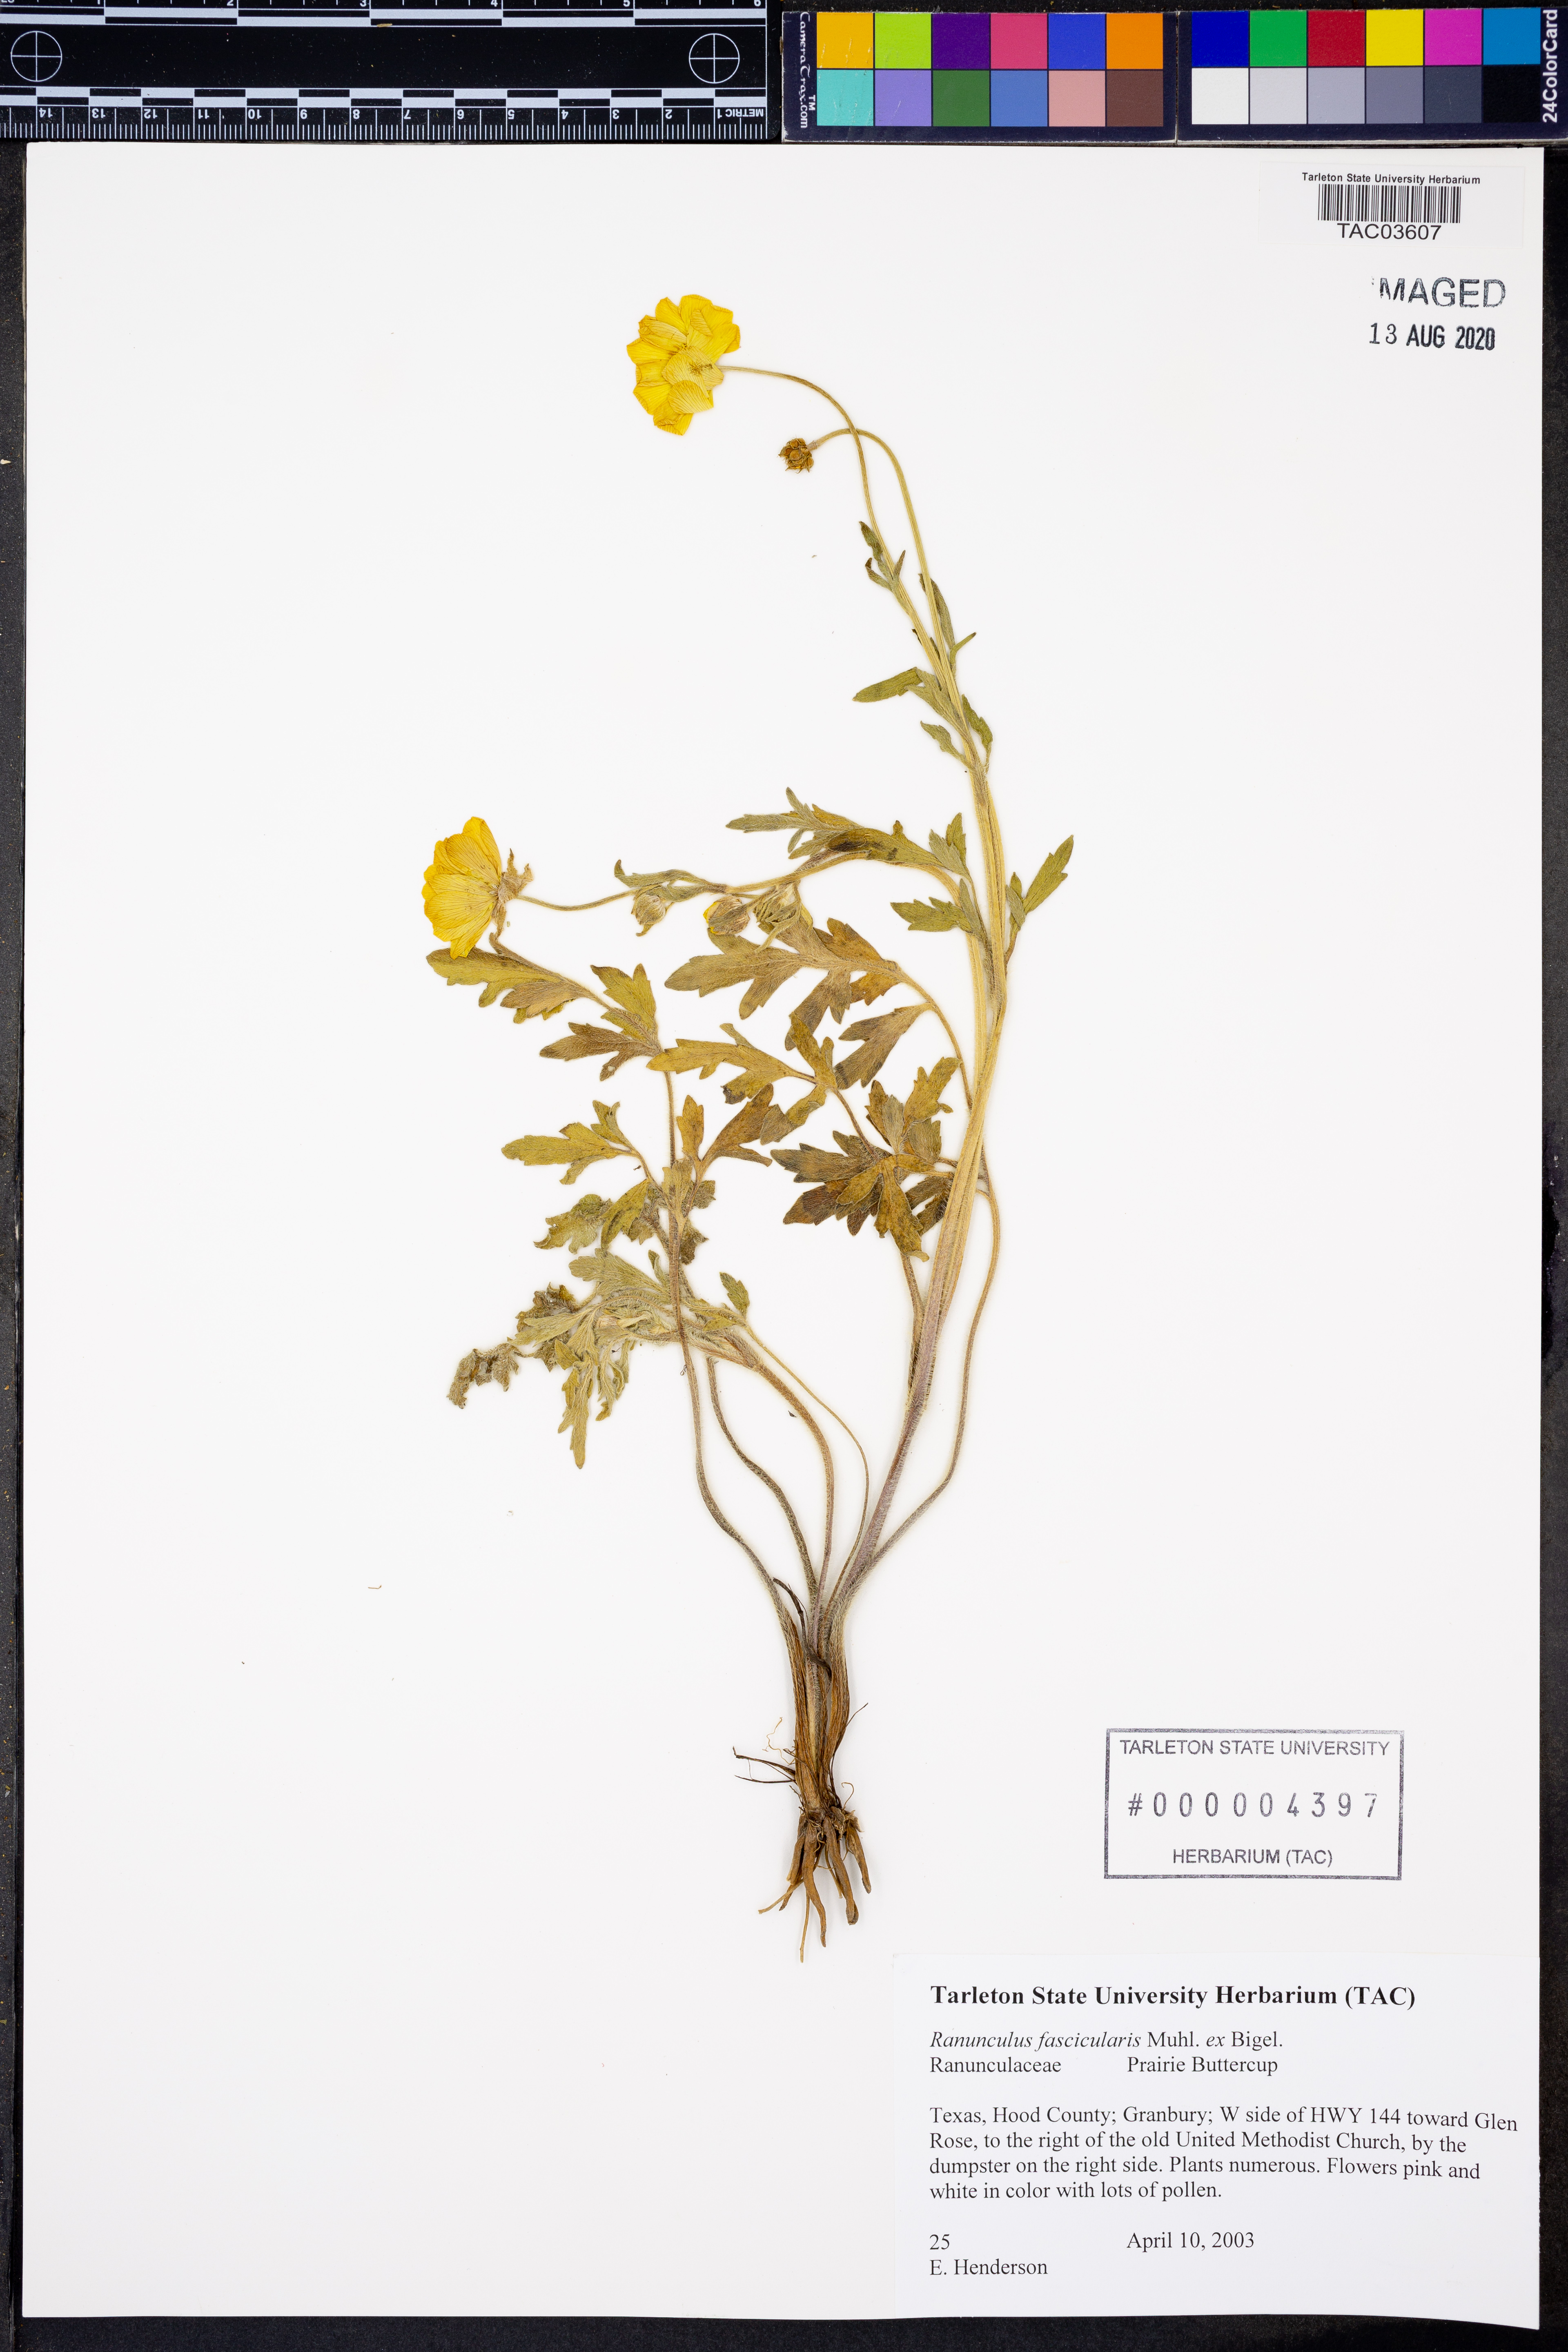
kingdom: Plantae
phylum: Tracheophyta
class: Magnoliopsida
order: Ranunculales
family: Ranunculaceae
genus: Ranunculus
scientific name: Ranunculus fascicularis
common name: Early buttercup
